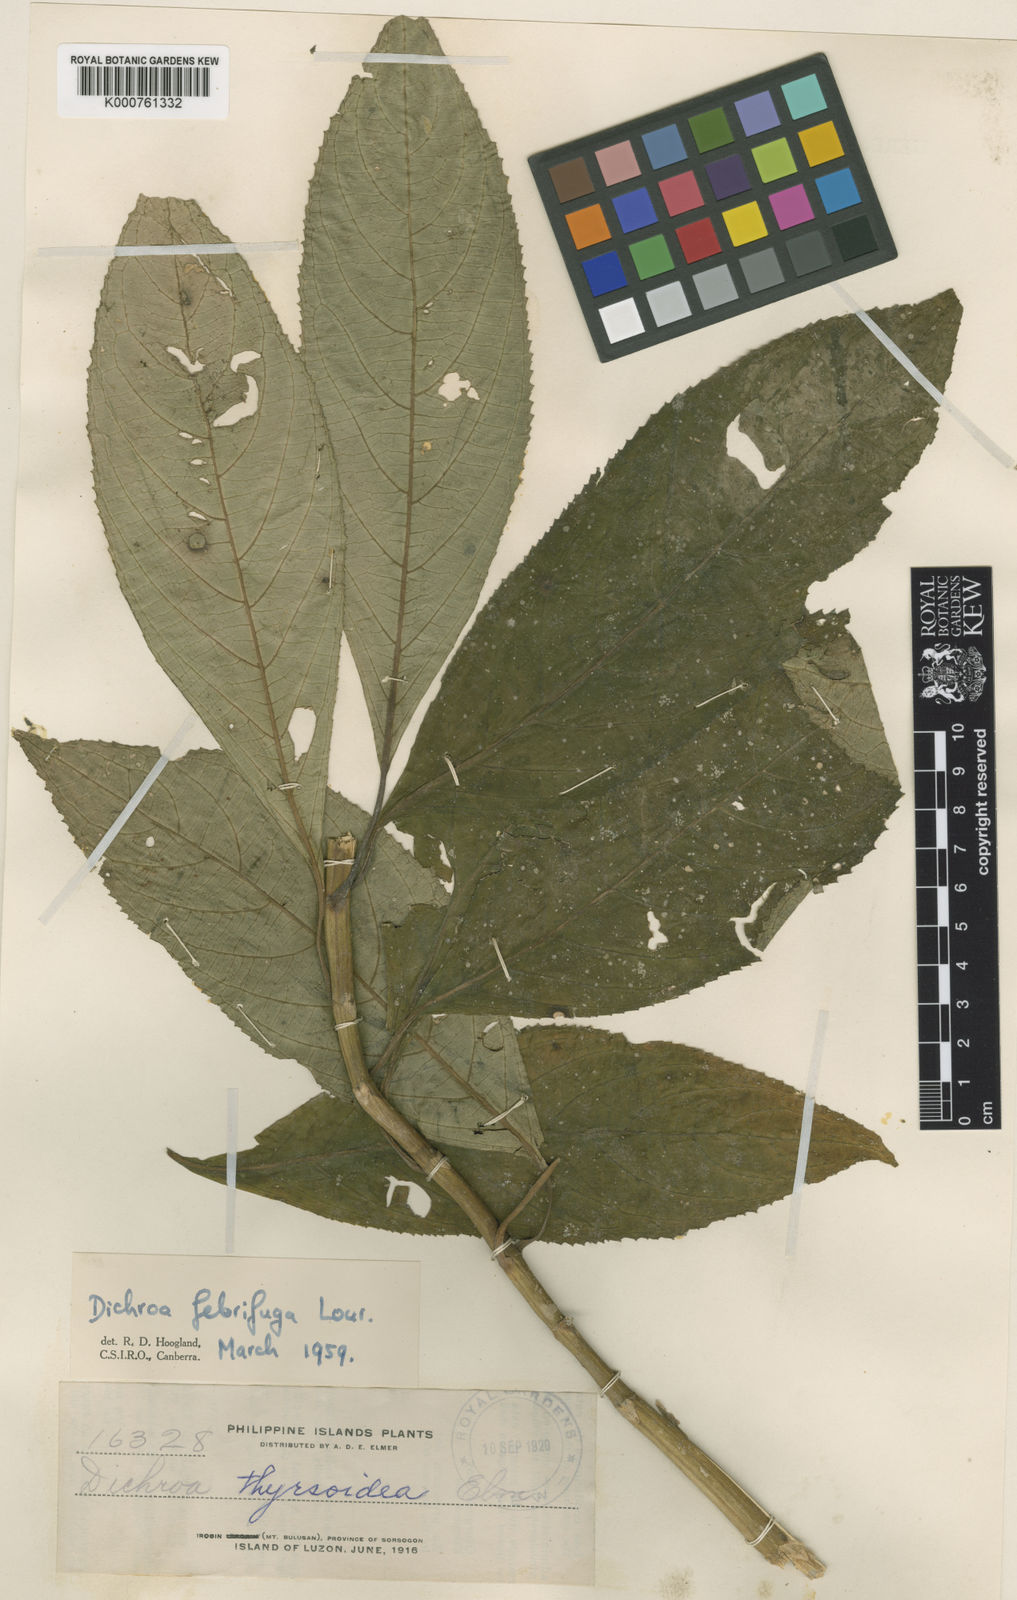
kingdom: Plantae
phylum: Tracheophyta
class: Magnoliopsida
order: Cornales
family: Hydrangeaceae
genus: Hydrangea
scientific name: Hydrangea febrifuga
